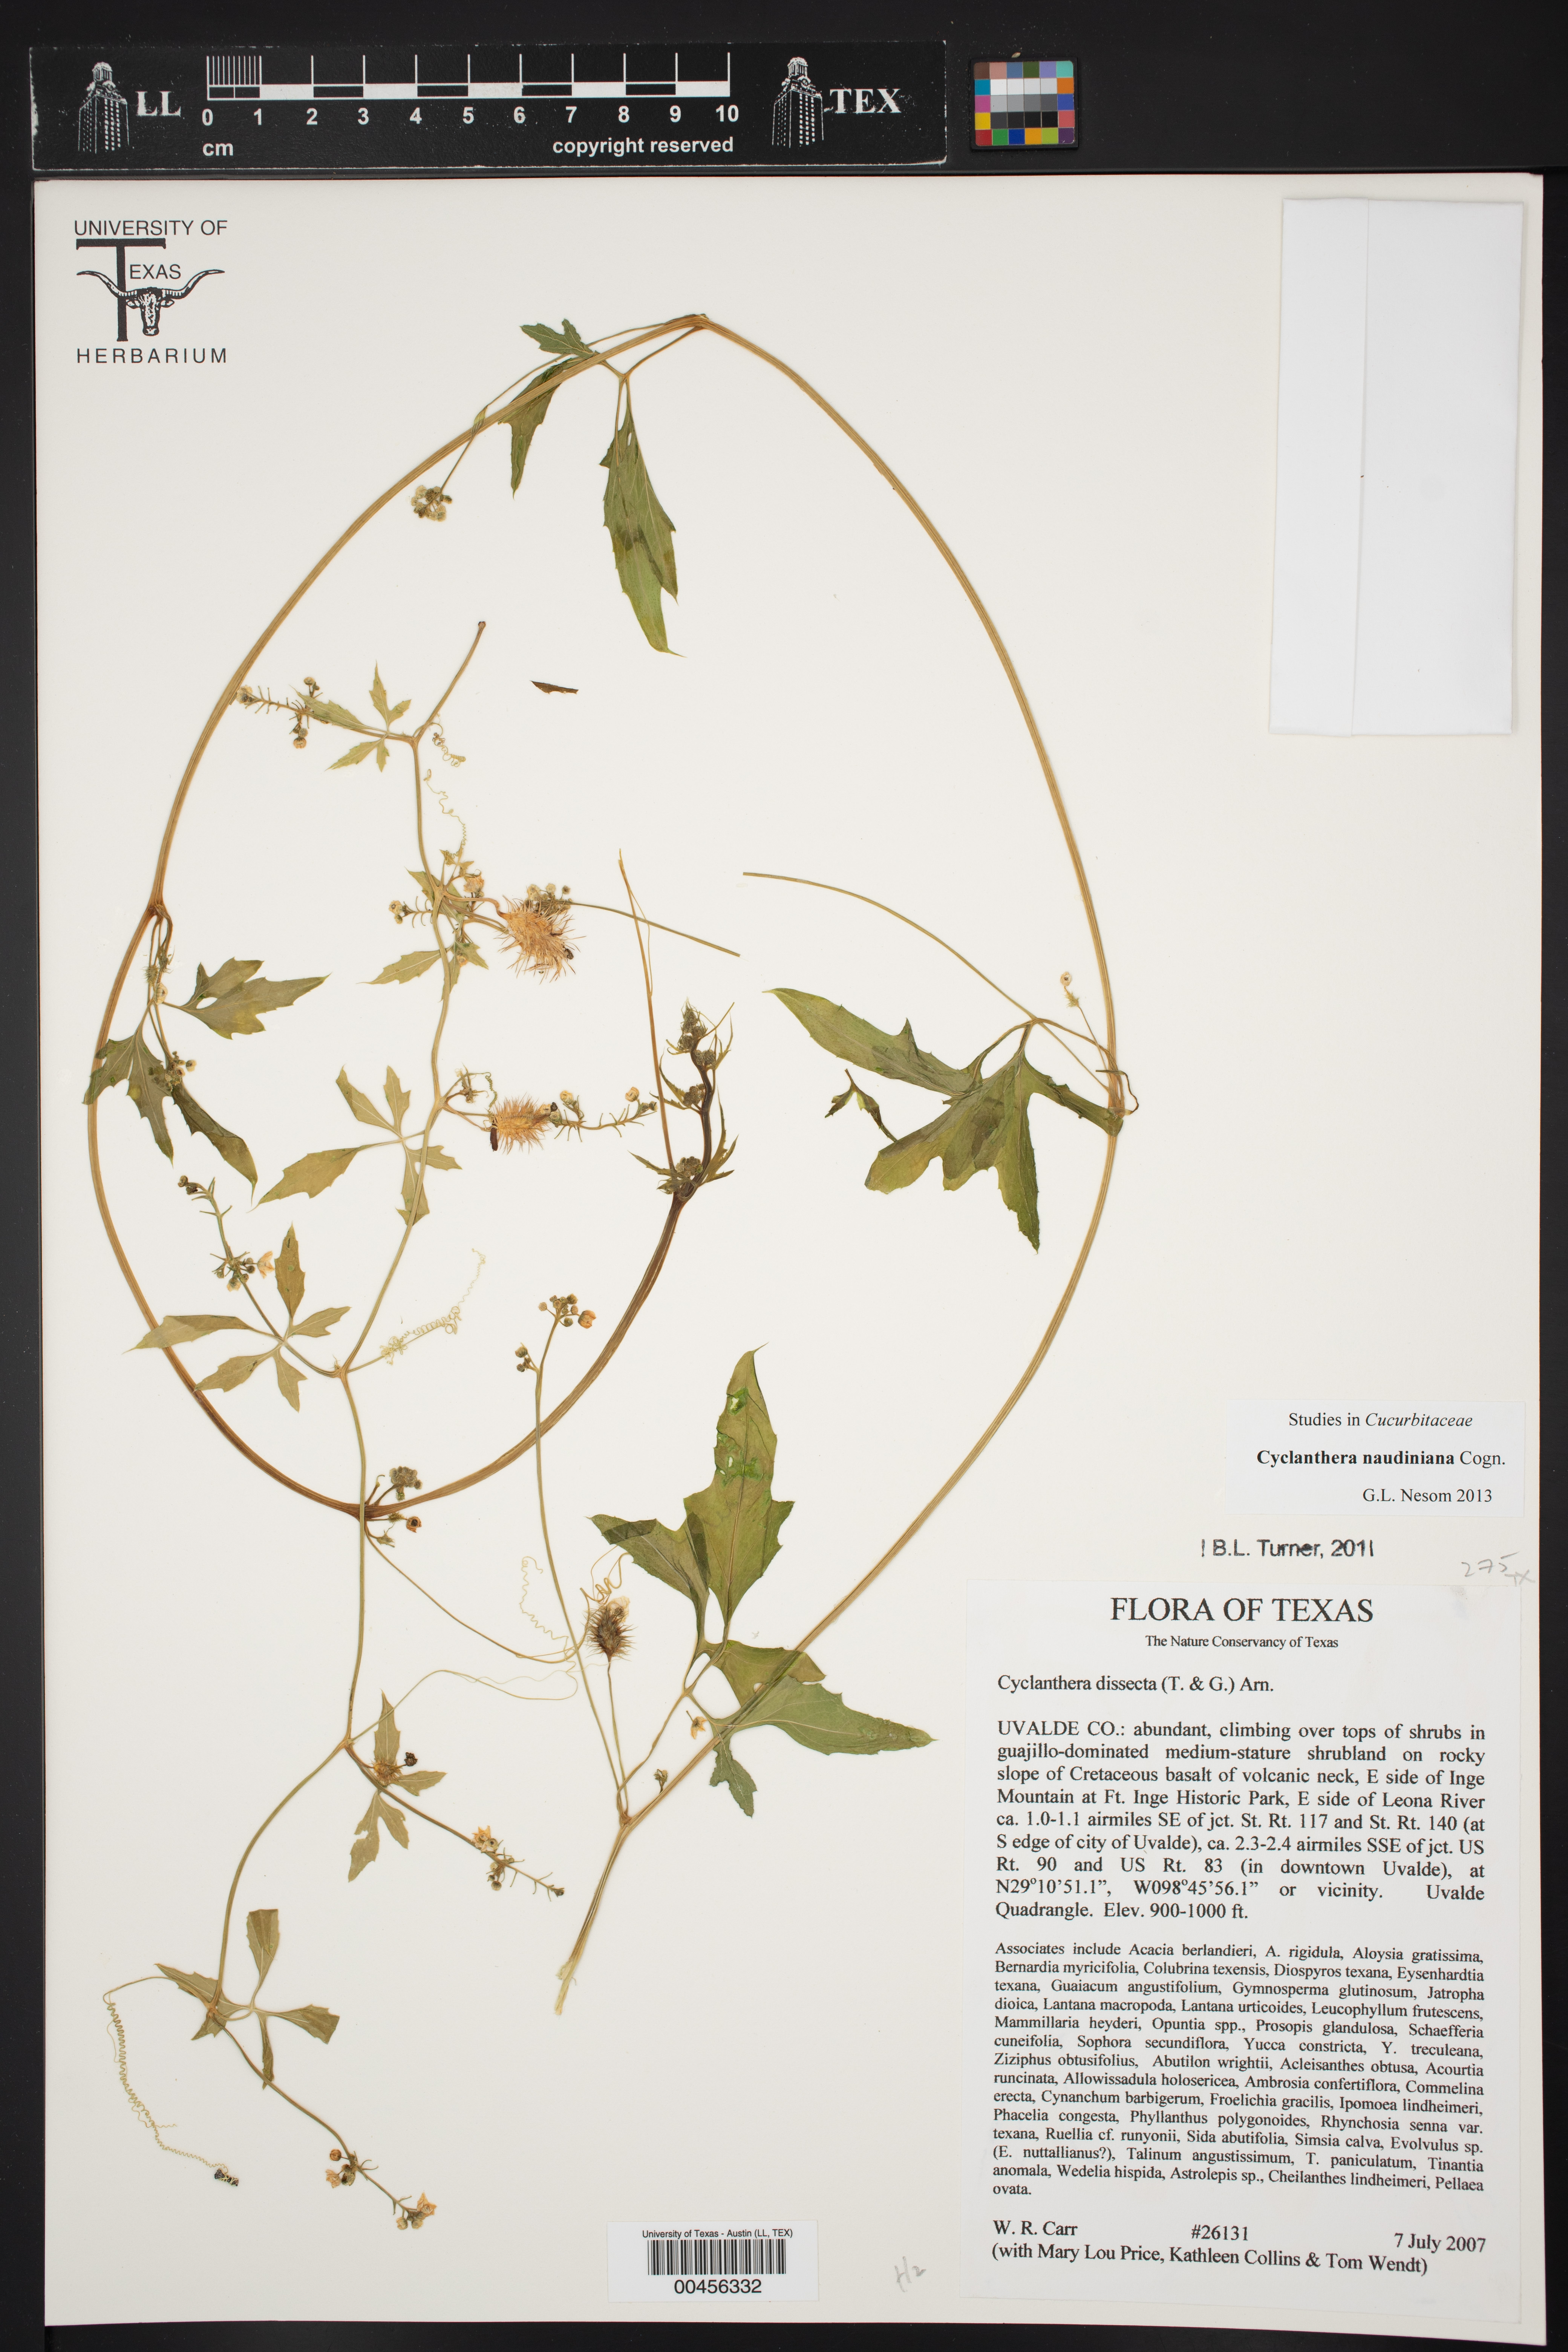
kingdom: Plantae
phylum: Tracheophyta
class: Magnoliopsida
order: Cucurbitales
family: Cucurbitaceae
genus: Cyclanthera
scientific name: Cyclanthera naudiniana
